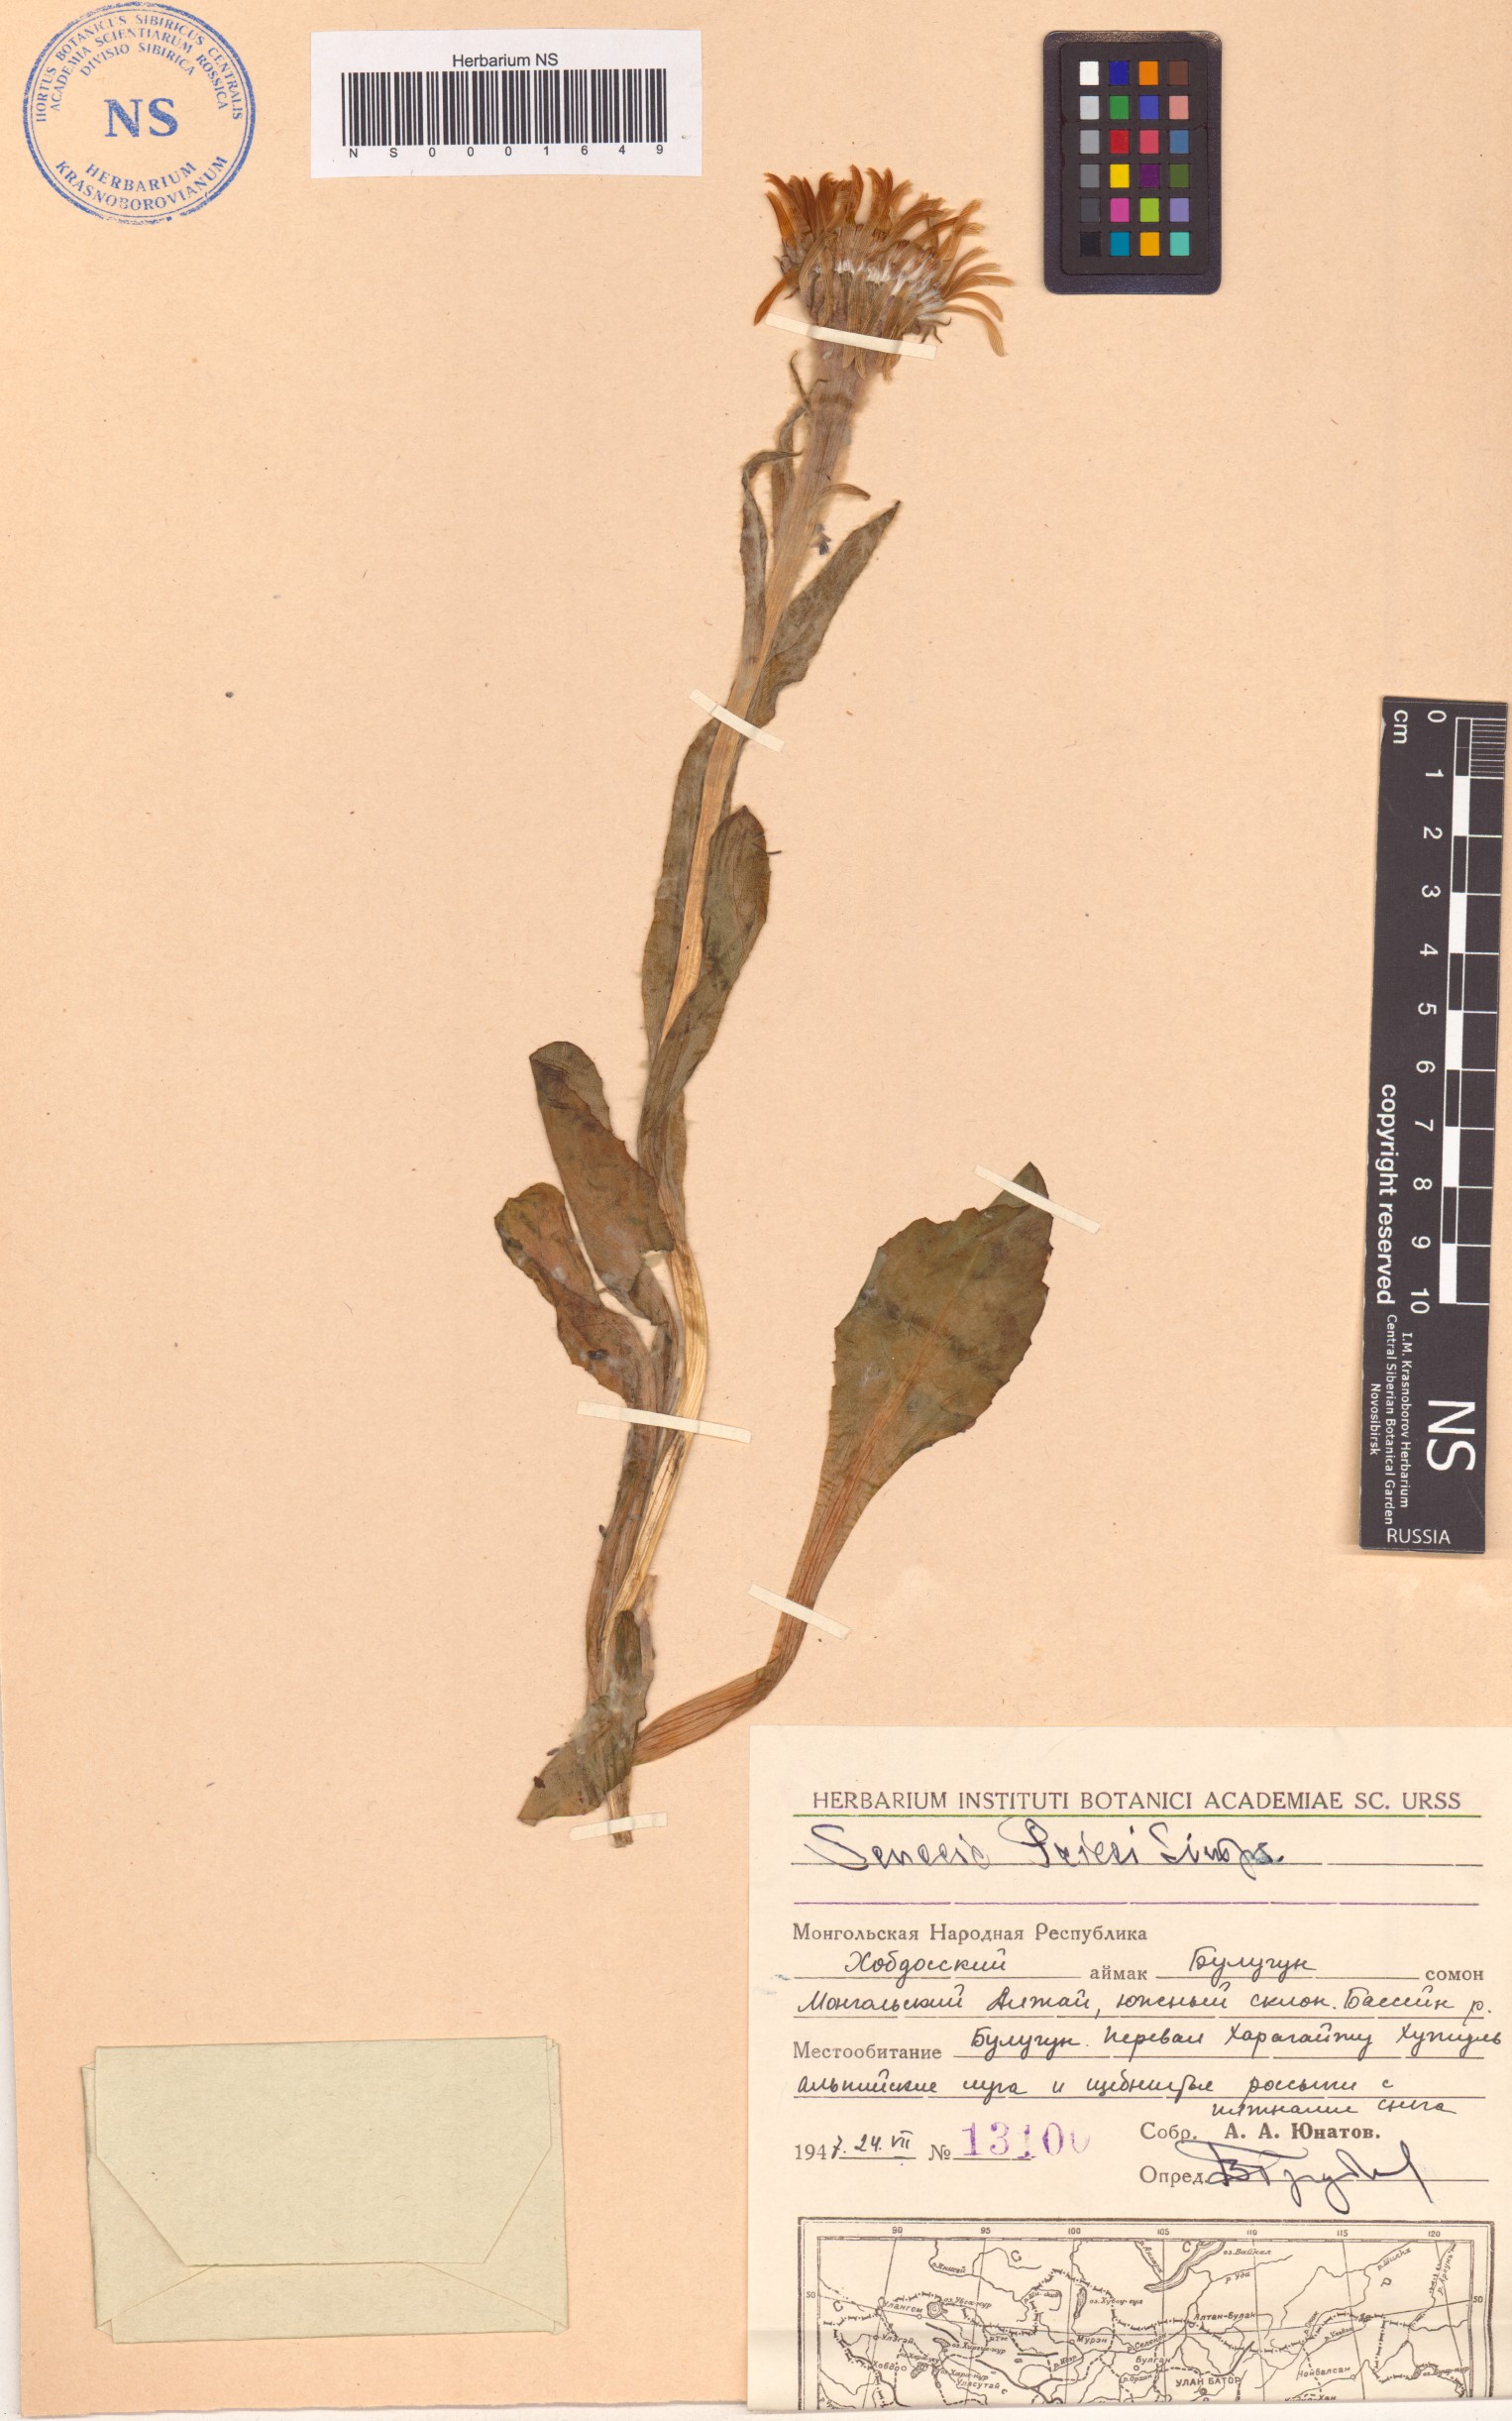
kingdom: Plantae
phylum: Tracheophyta
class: Magnoliopsida
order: Asterales
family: Asteraceae
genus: Tephroseris
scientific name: Tephroseris pricei
